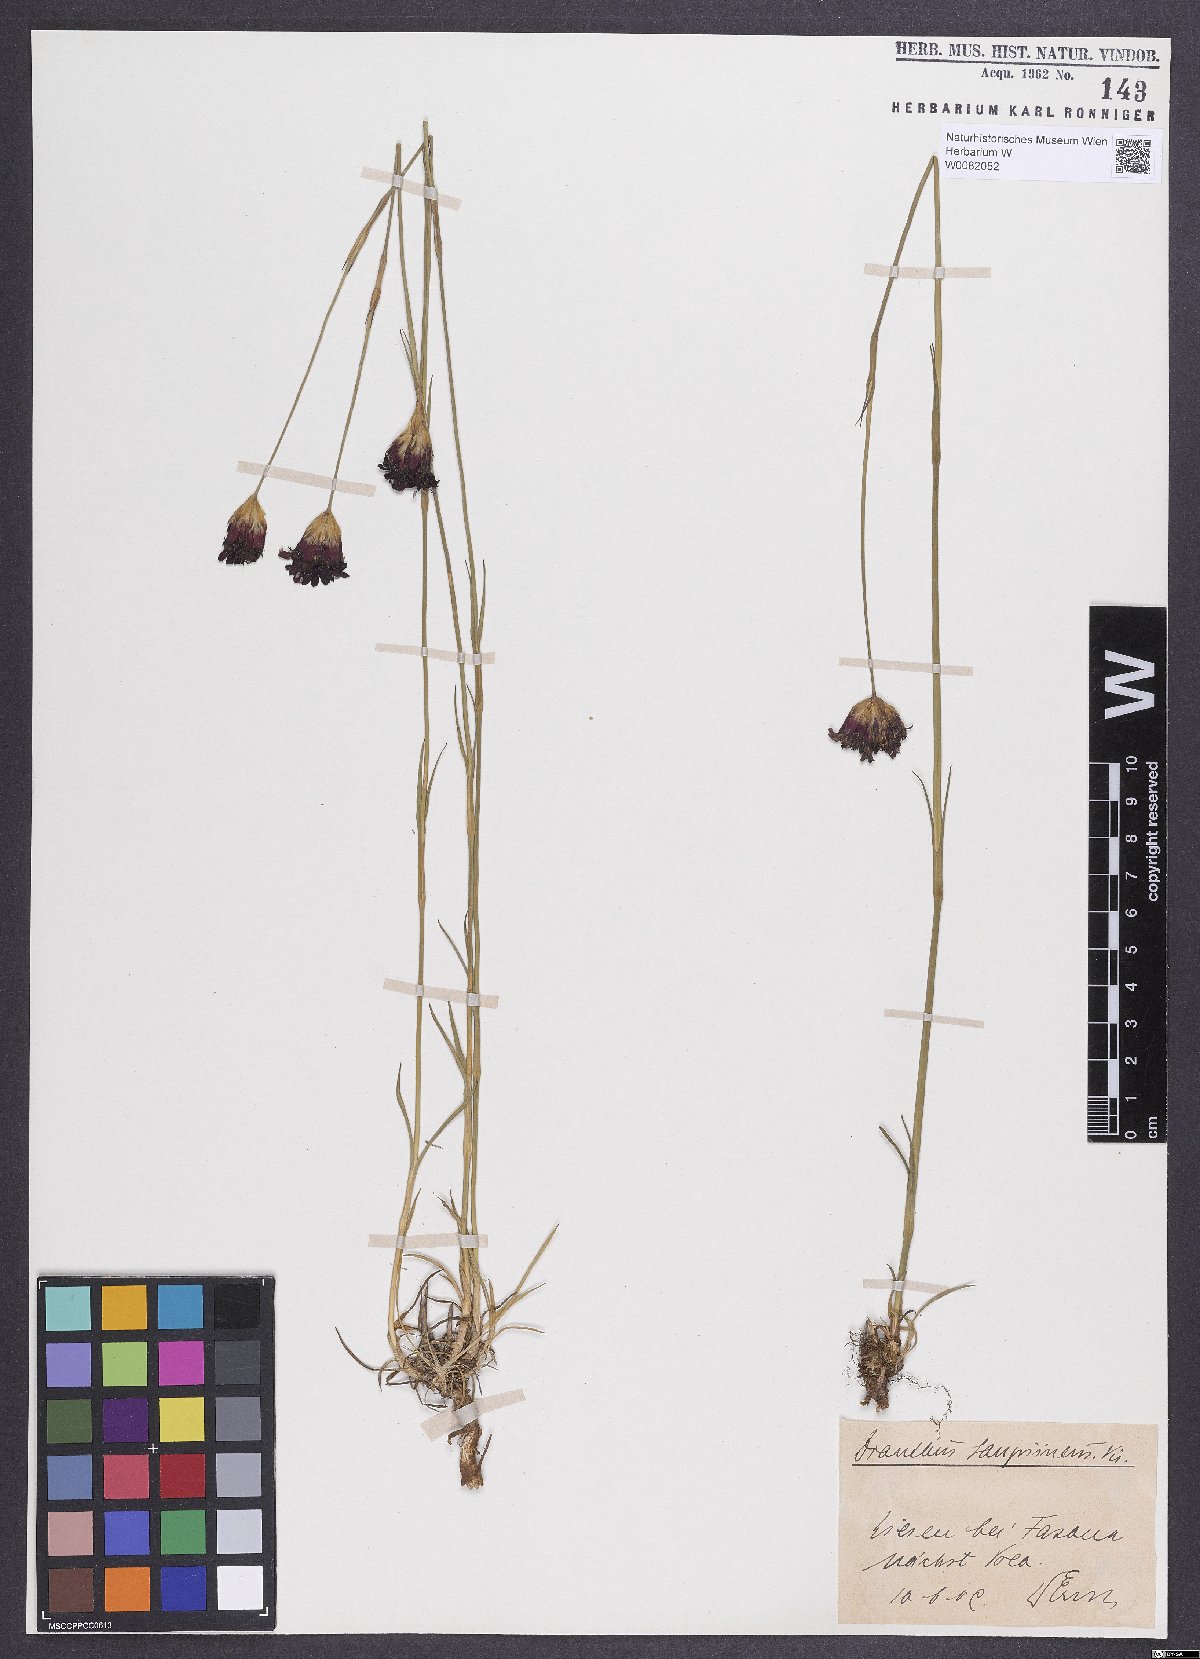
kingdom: Plantae
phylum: Tracheophyta
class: Magnoliopsida
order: Caryophyllales
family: Caryophyllaceae
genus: Dianthus
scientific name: Dianthus carthusianorum
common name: Carthusian pink
